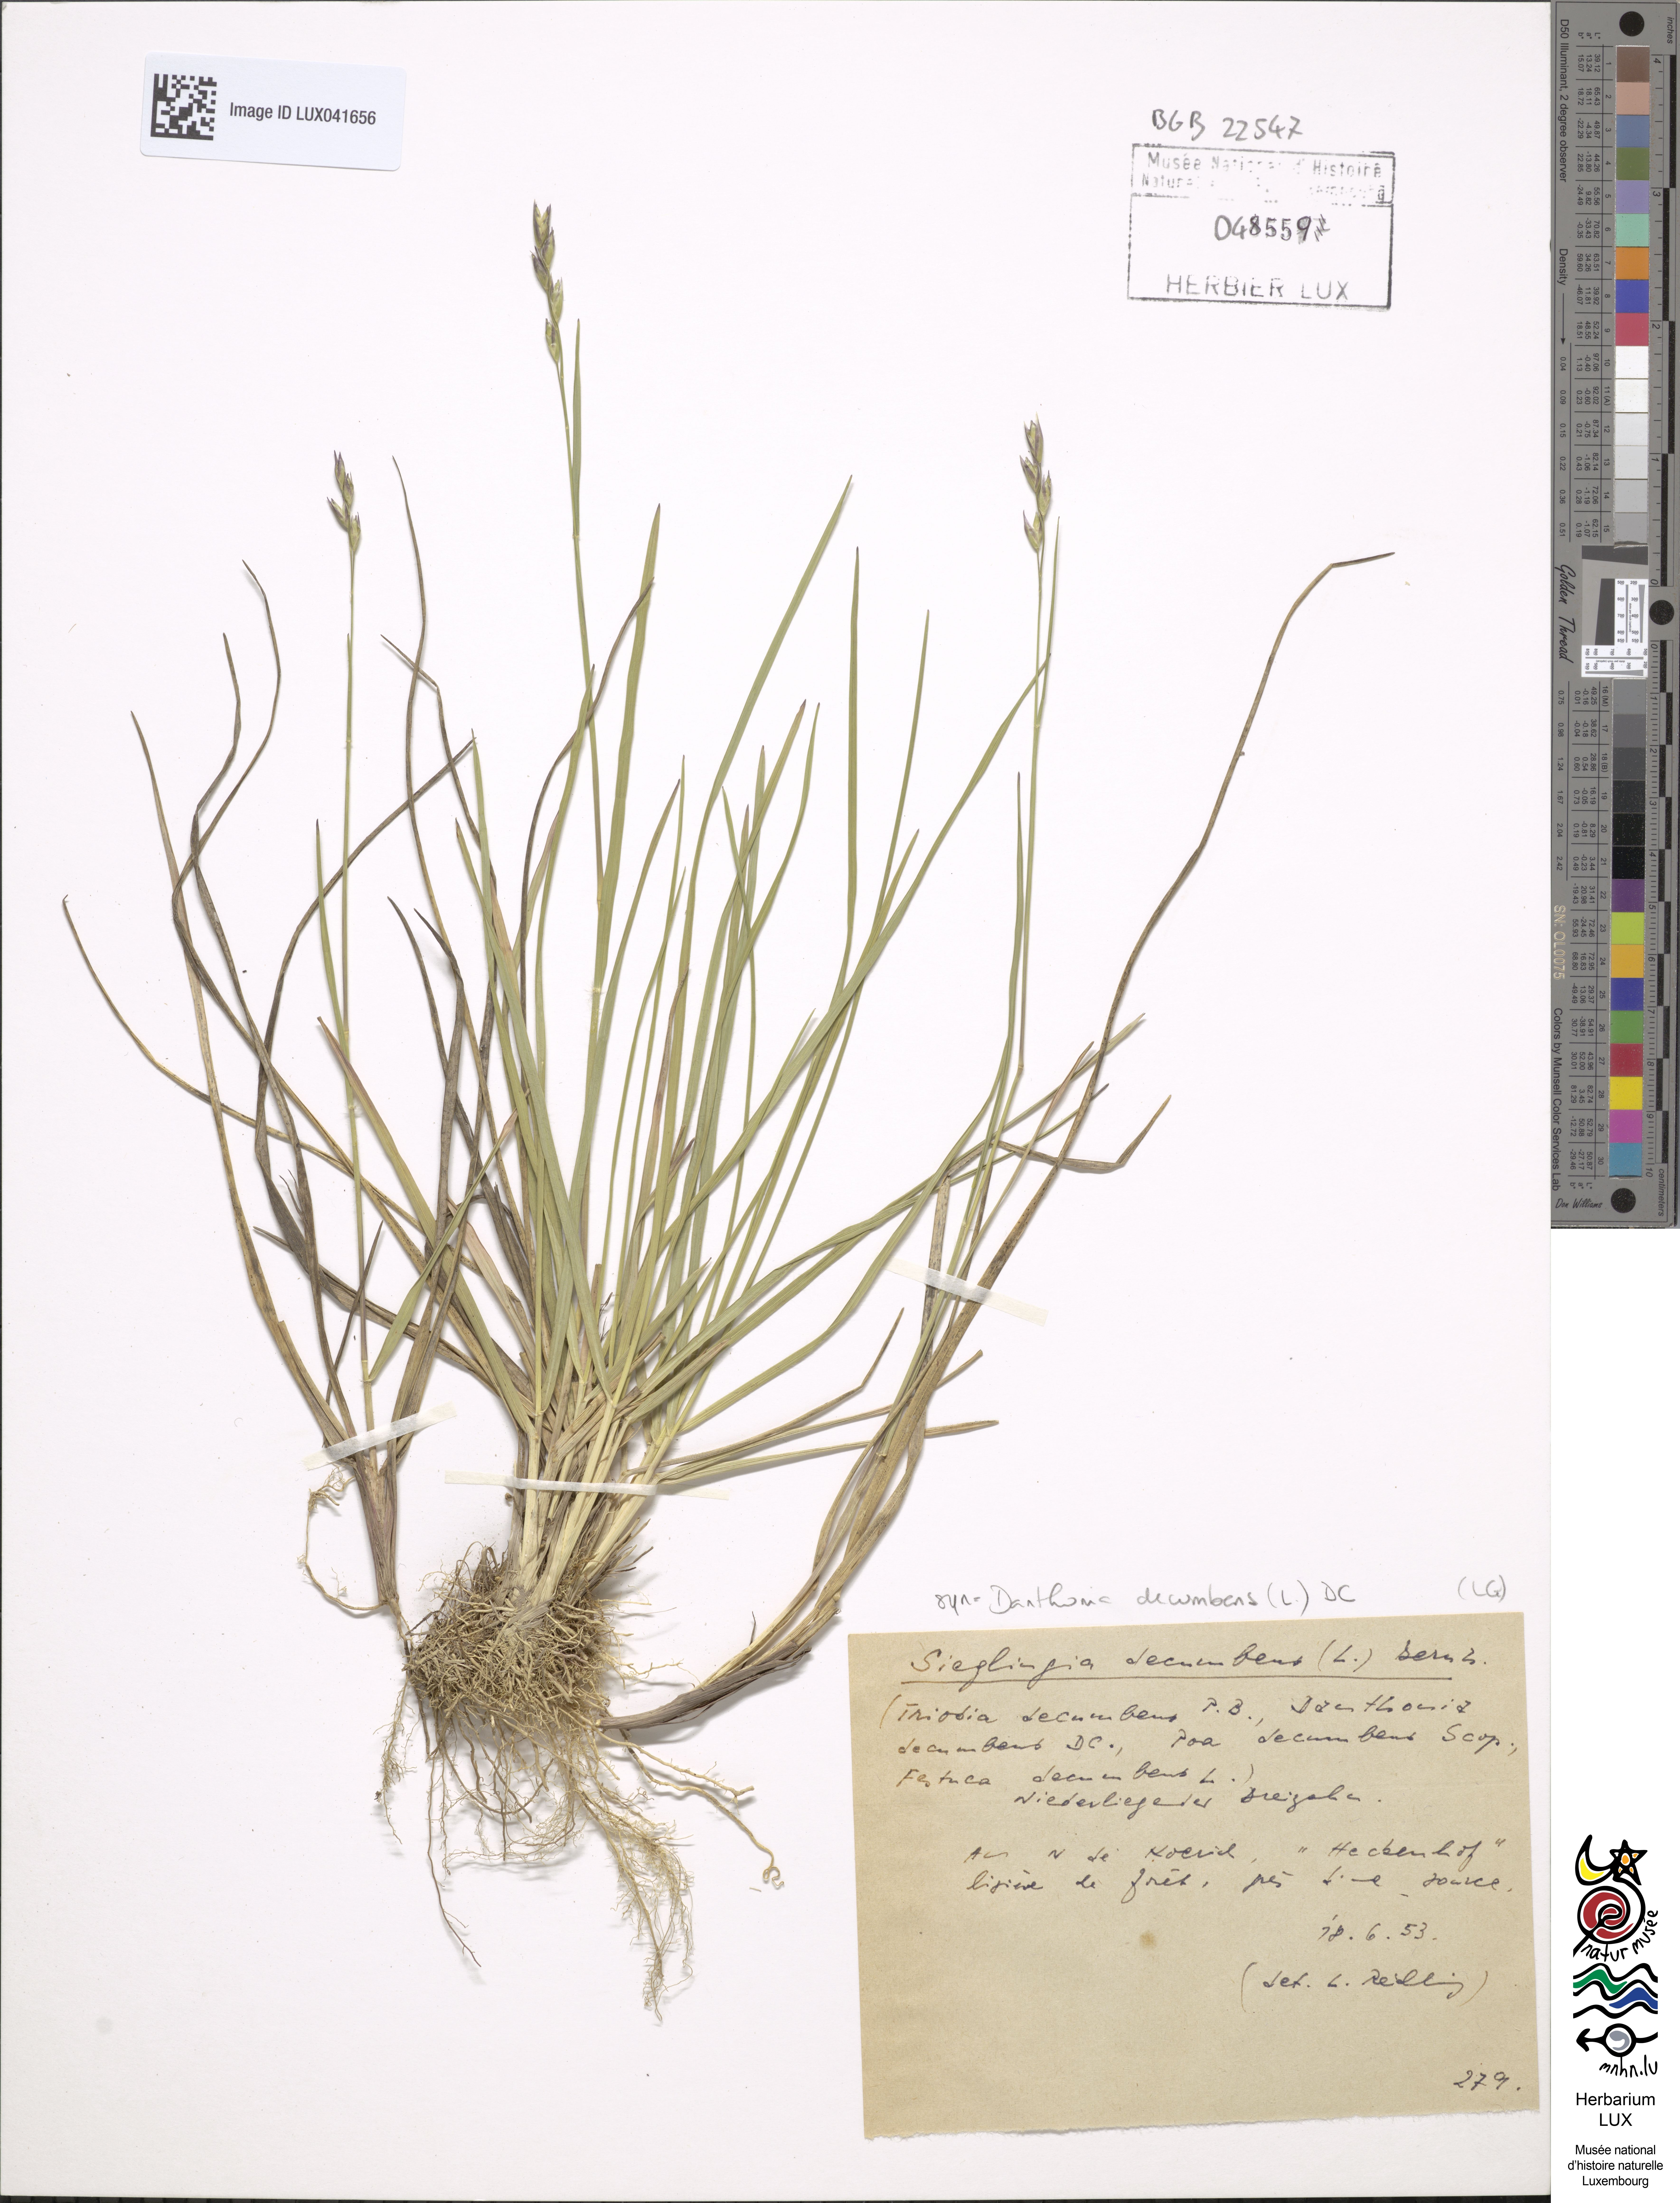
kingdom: Plantae
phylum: Tracheophyta
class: Liliopsida
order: Poales
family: Poaceae
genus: Danthonia
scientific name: Danthonia decumbens
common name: Common heathgrass
